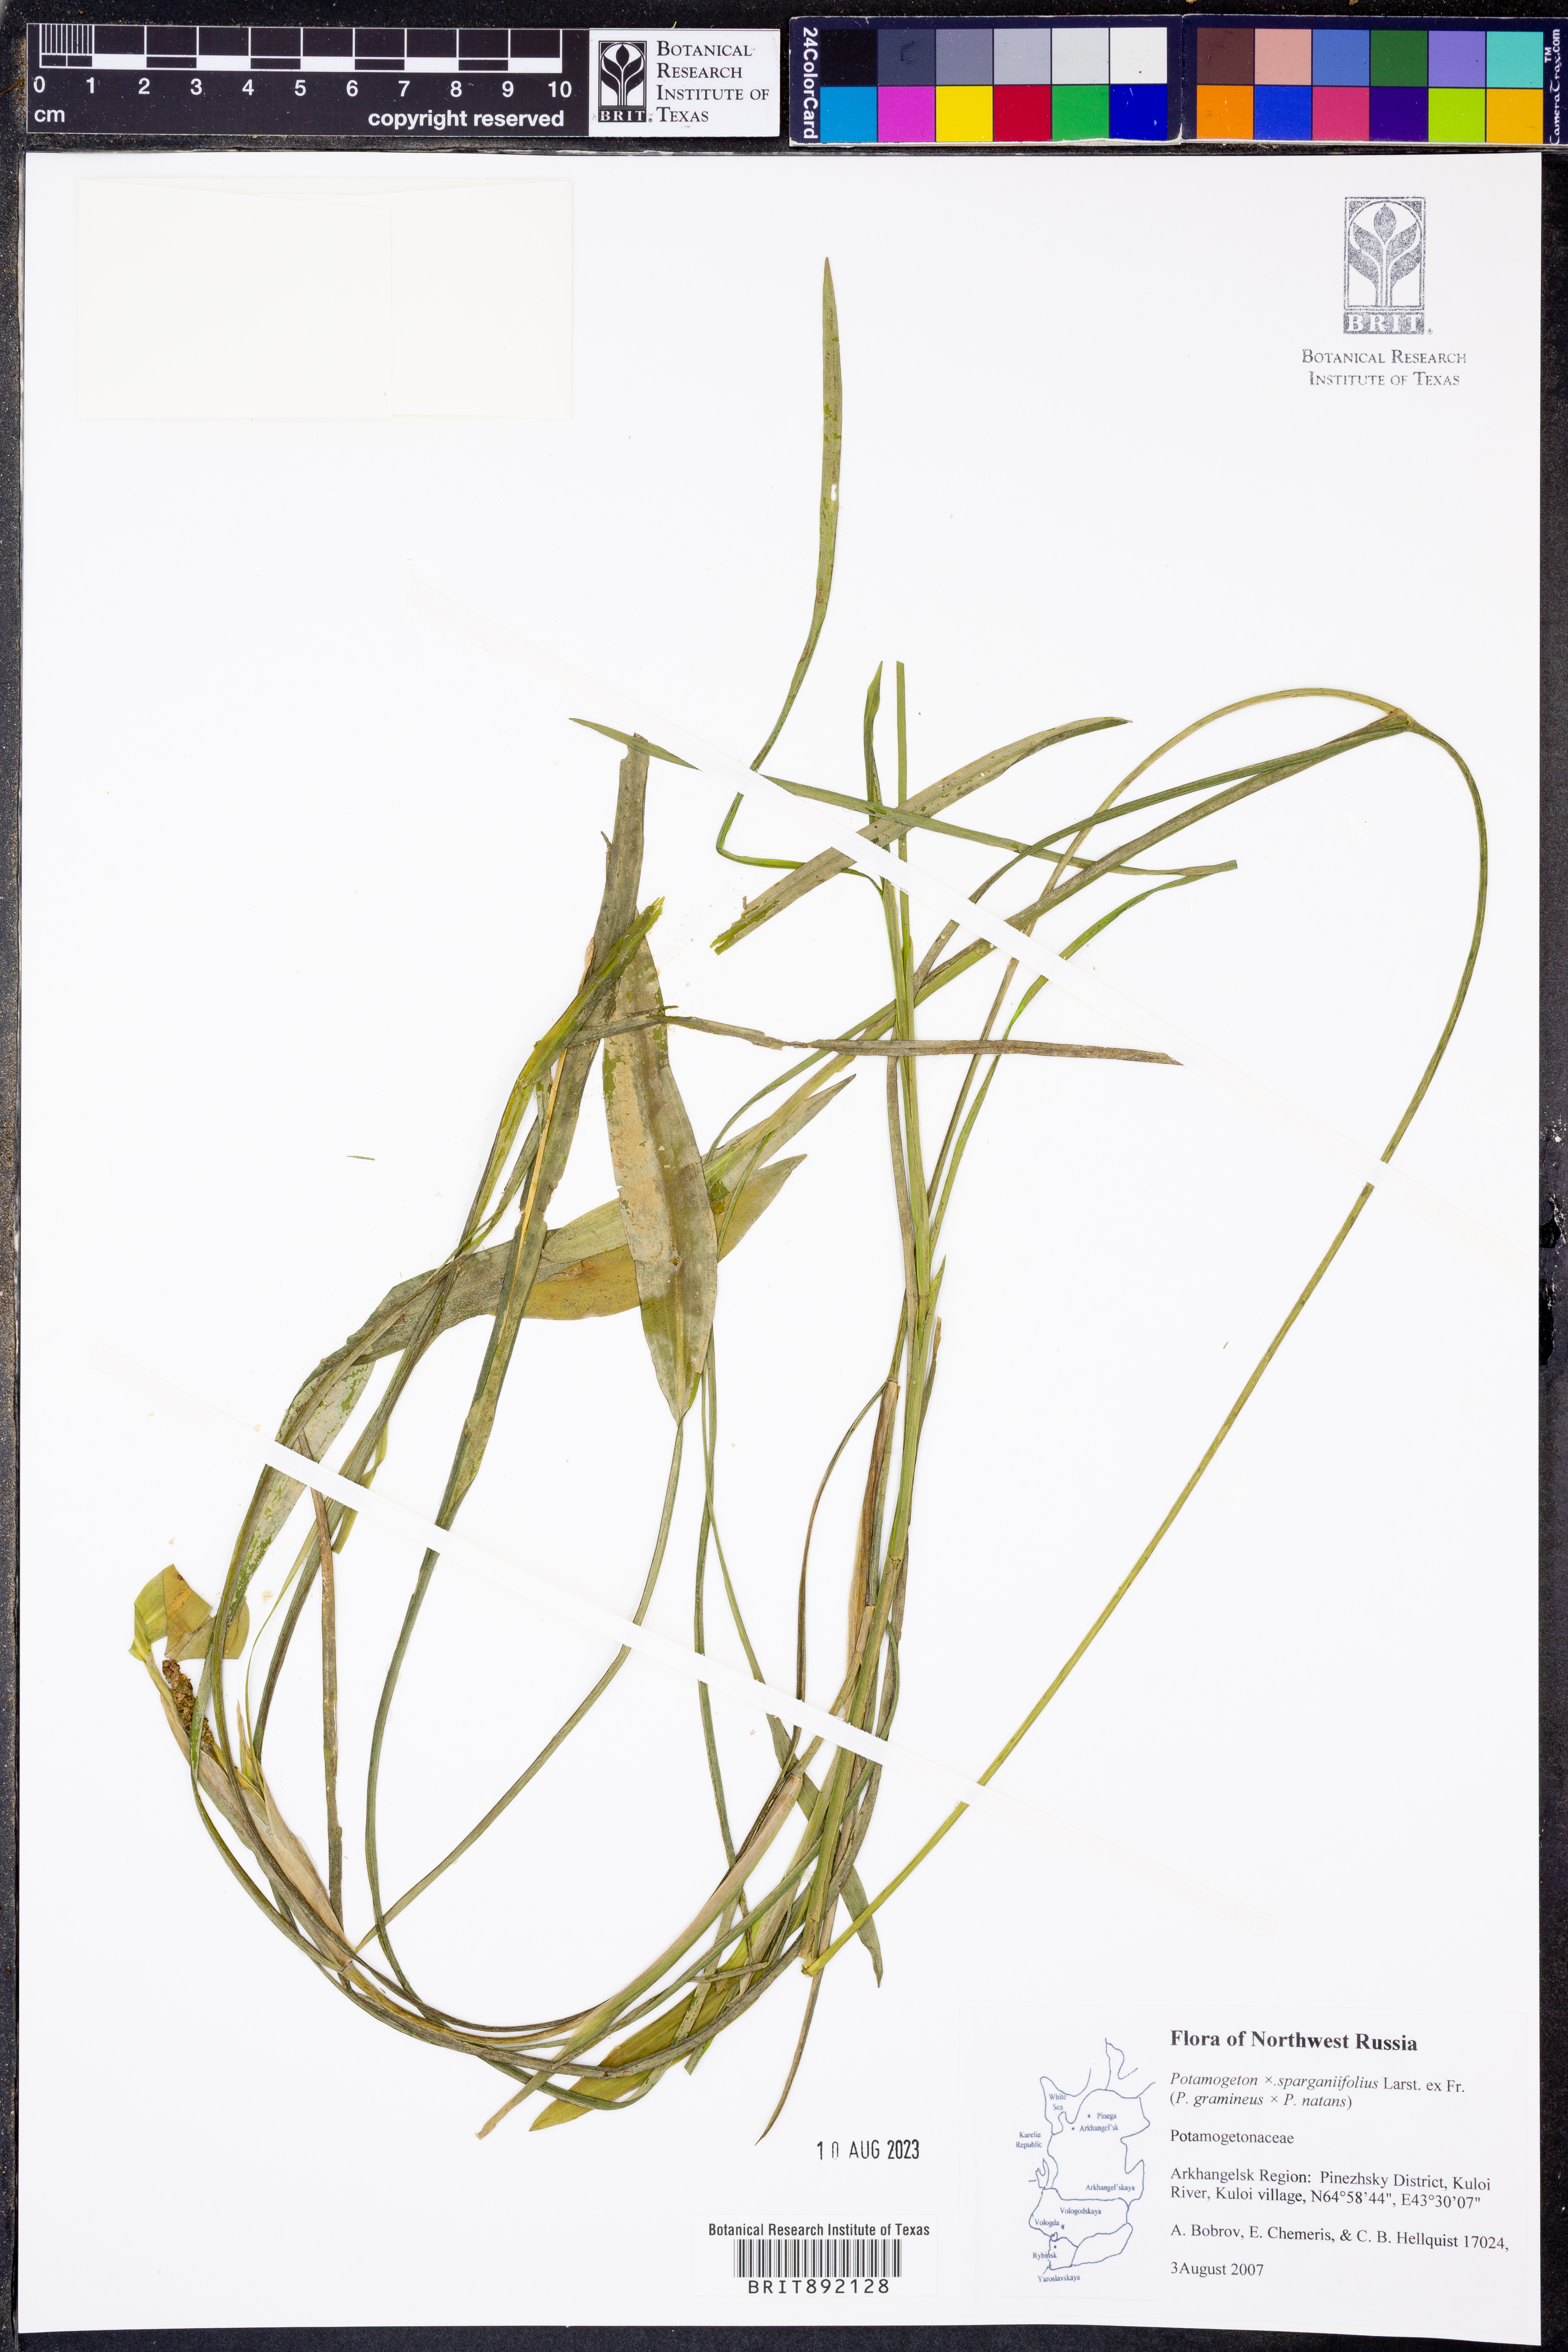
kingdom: Plantae
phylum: Tracheophyta
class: Liliopsida
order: Alismatales
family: Potamogetonaceae
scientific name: Potamogetonaceae
